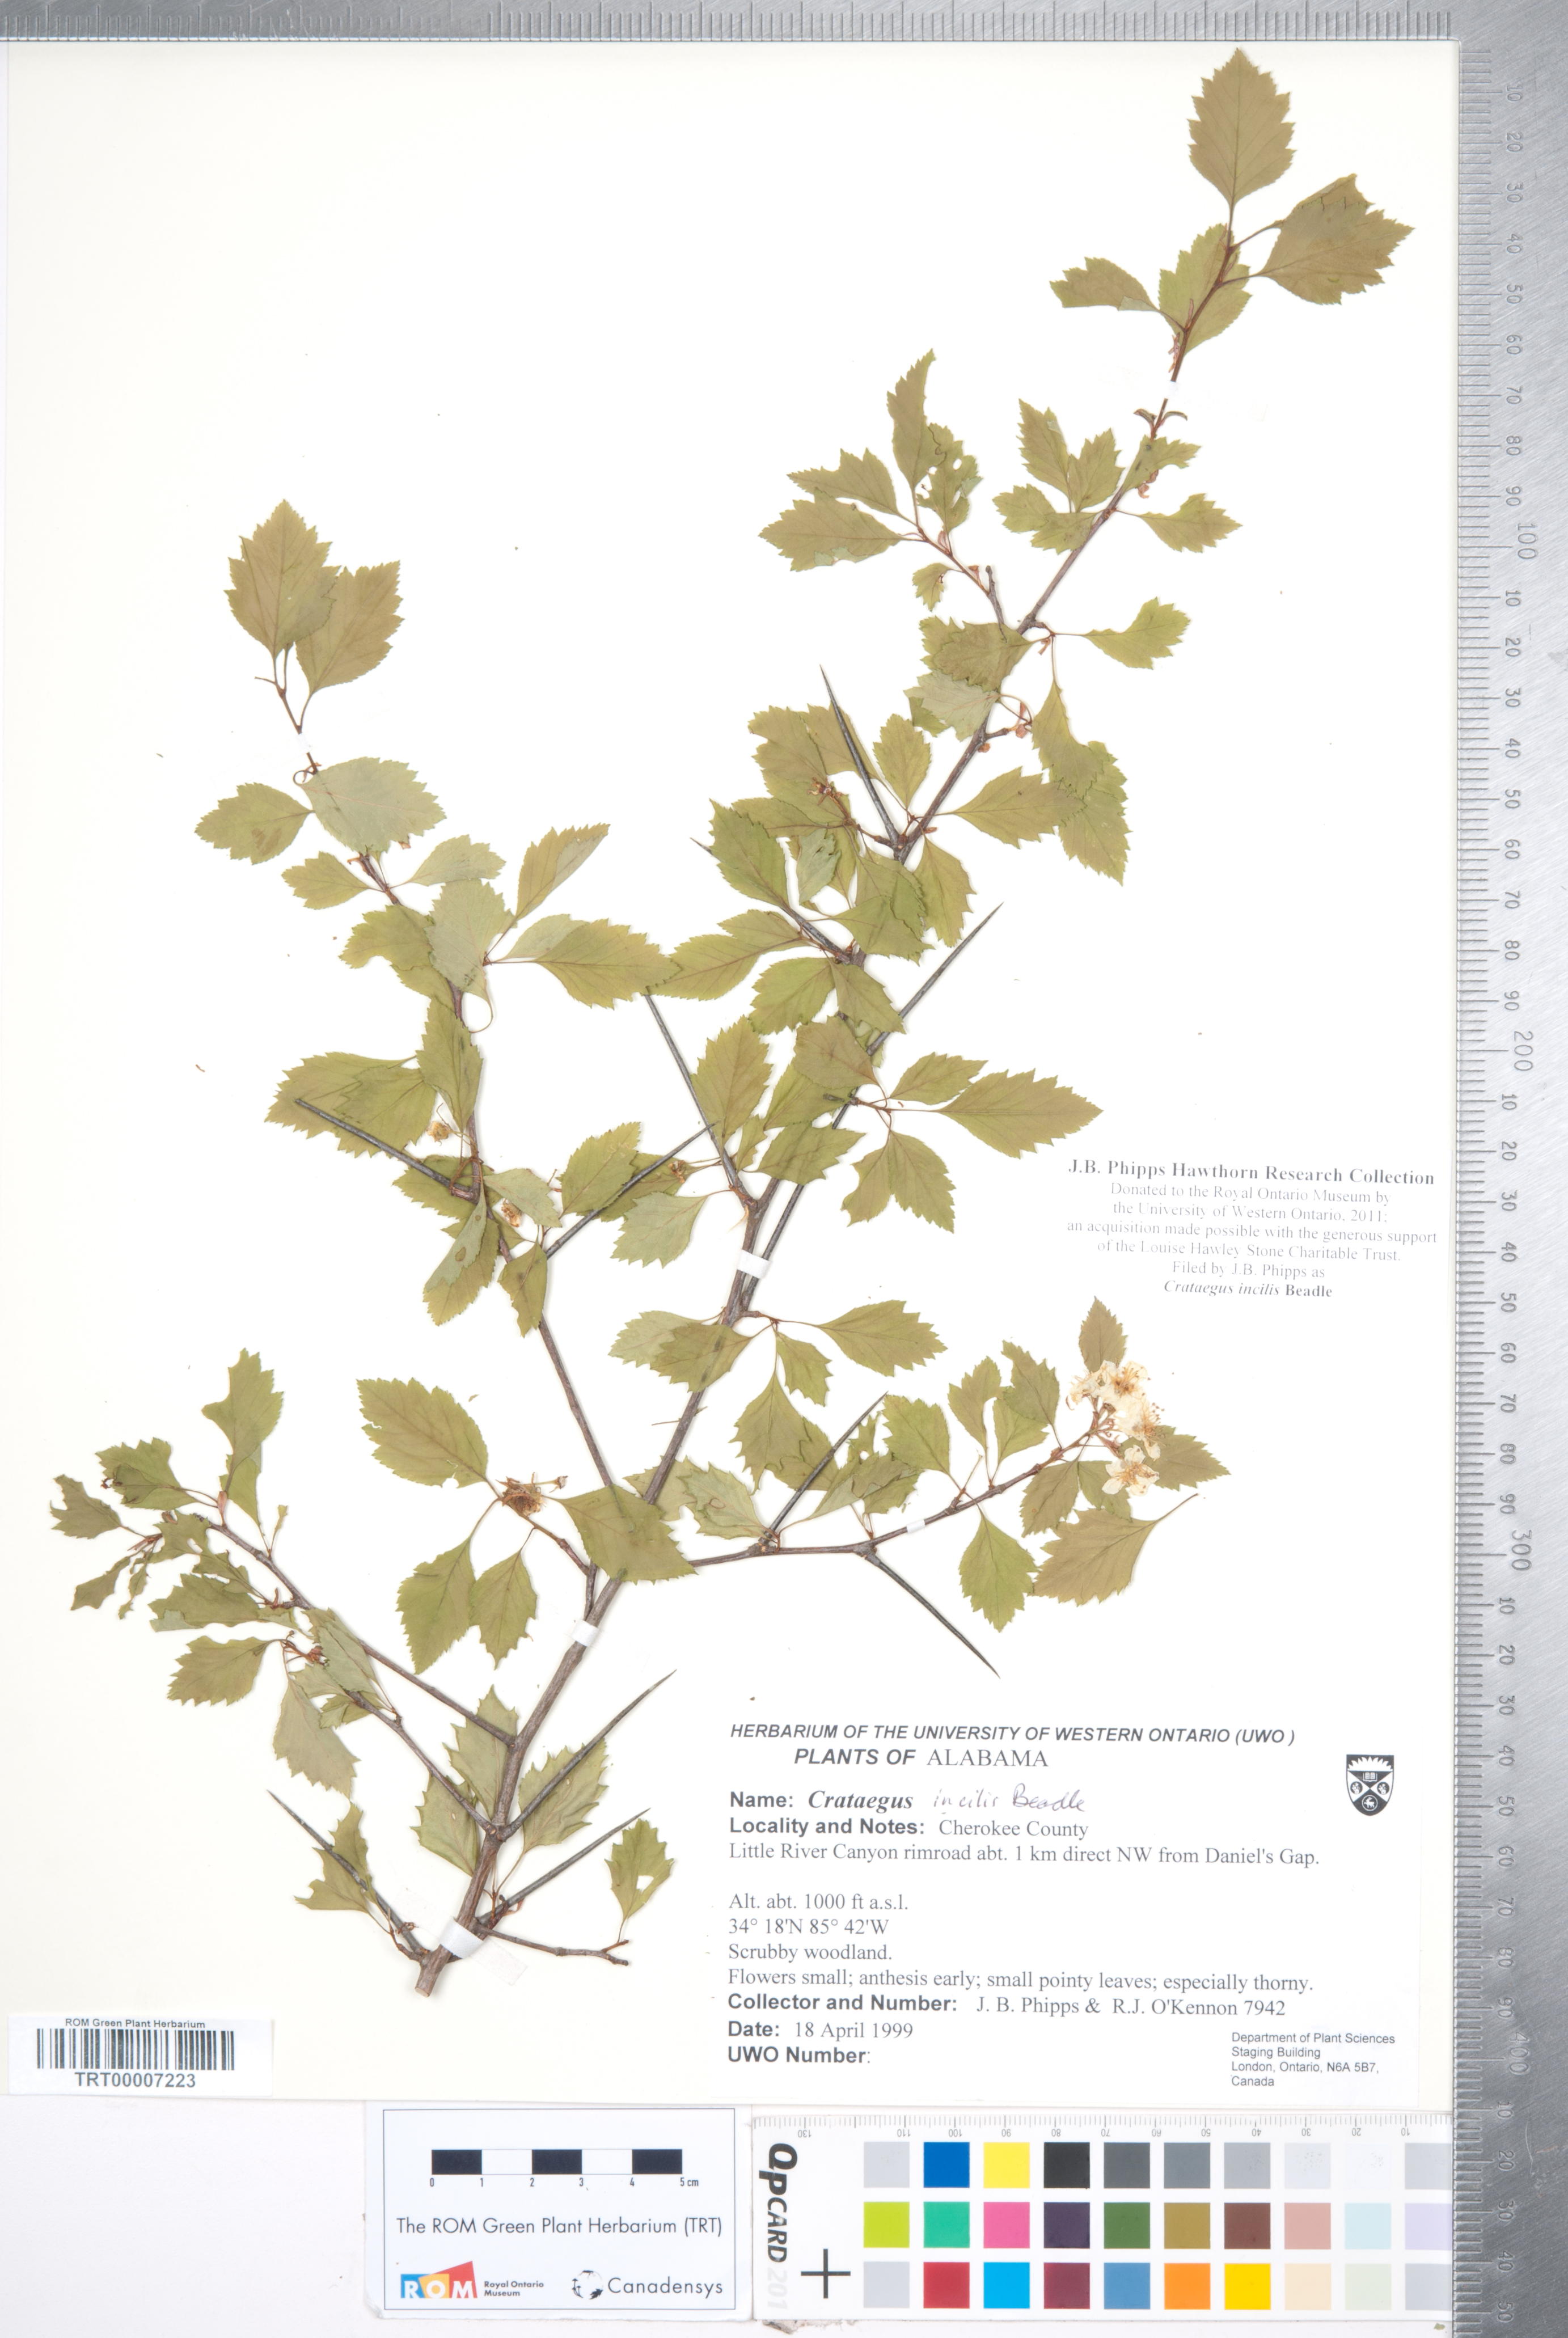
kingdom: Plantae
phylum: Tracheophyta
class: Magnoliopsida
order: Rosales
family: Rosaceae
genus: Crataegus
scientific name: Crataegus pulcherrima
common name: Beautiful hawthorn
